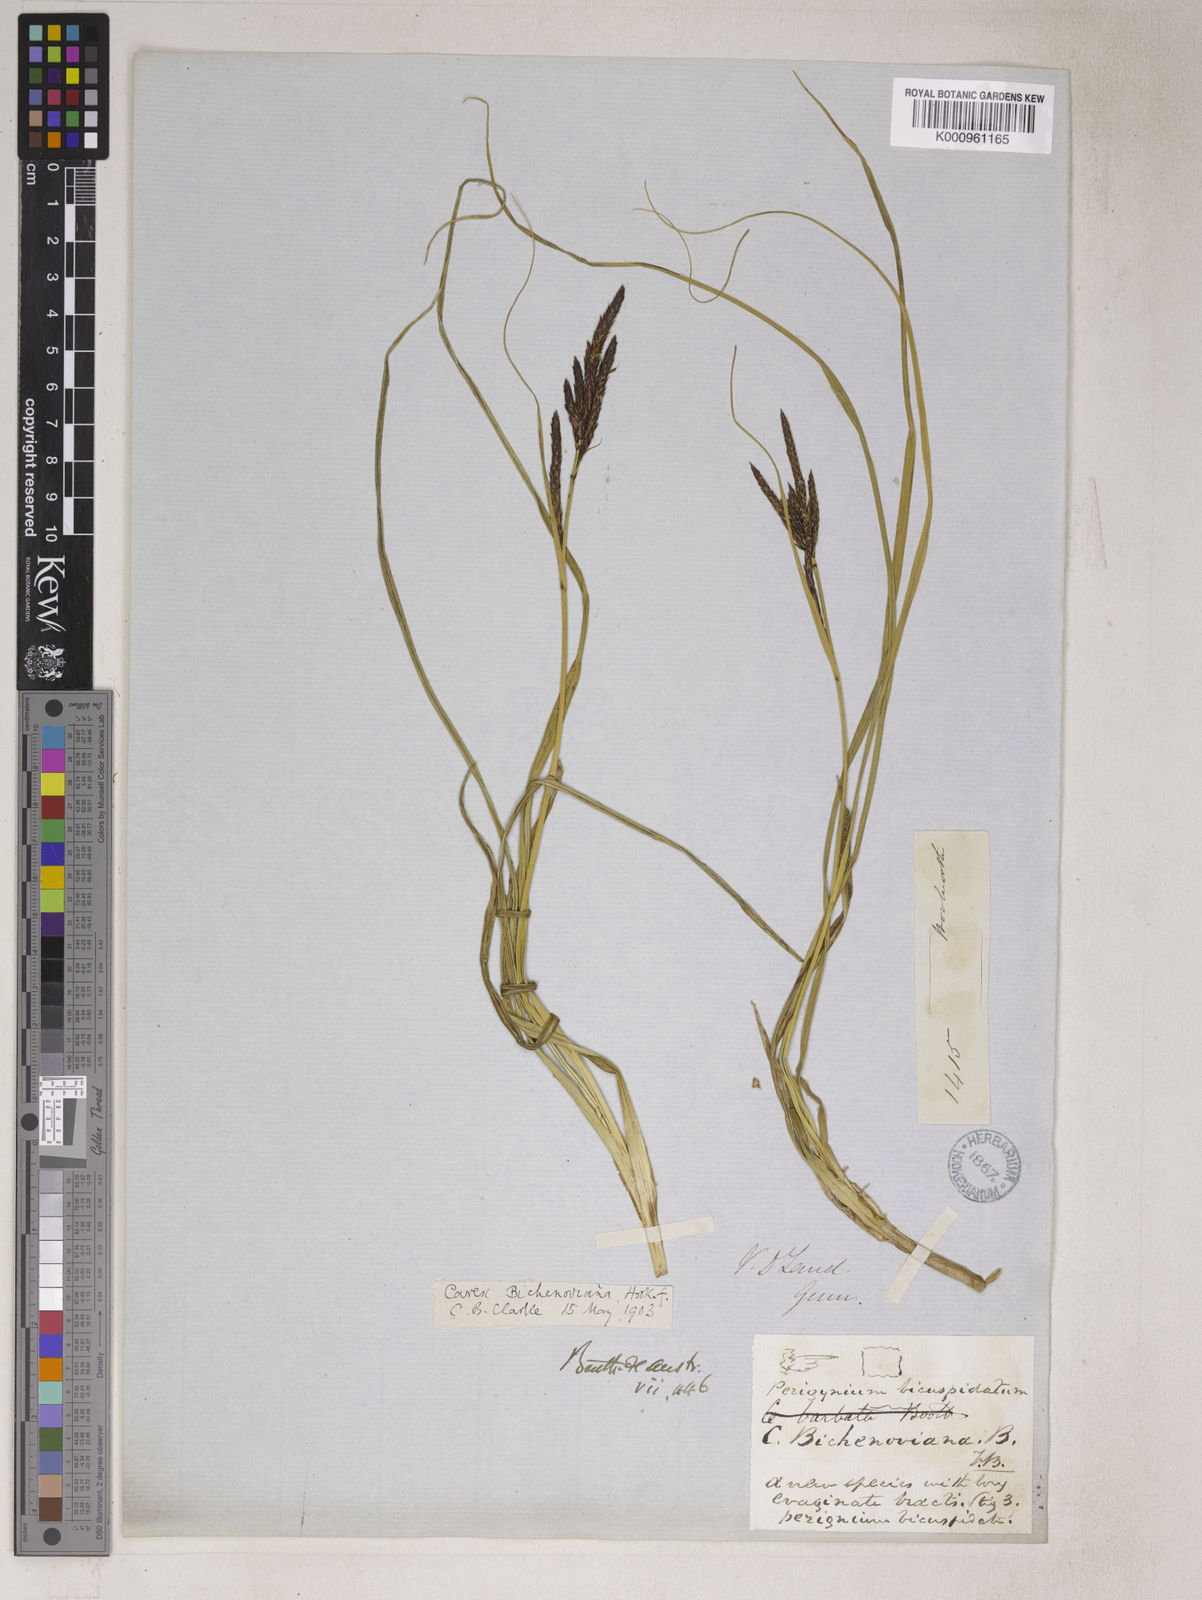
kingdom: Plantae
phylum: Tracheophyta
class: Liliopsida
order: Poales
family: Cyperaceae
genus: Carex
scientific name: Carex bichenoviana
